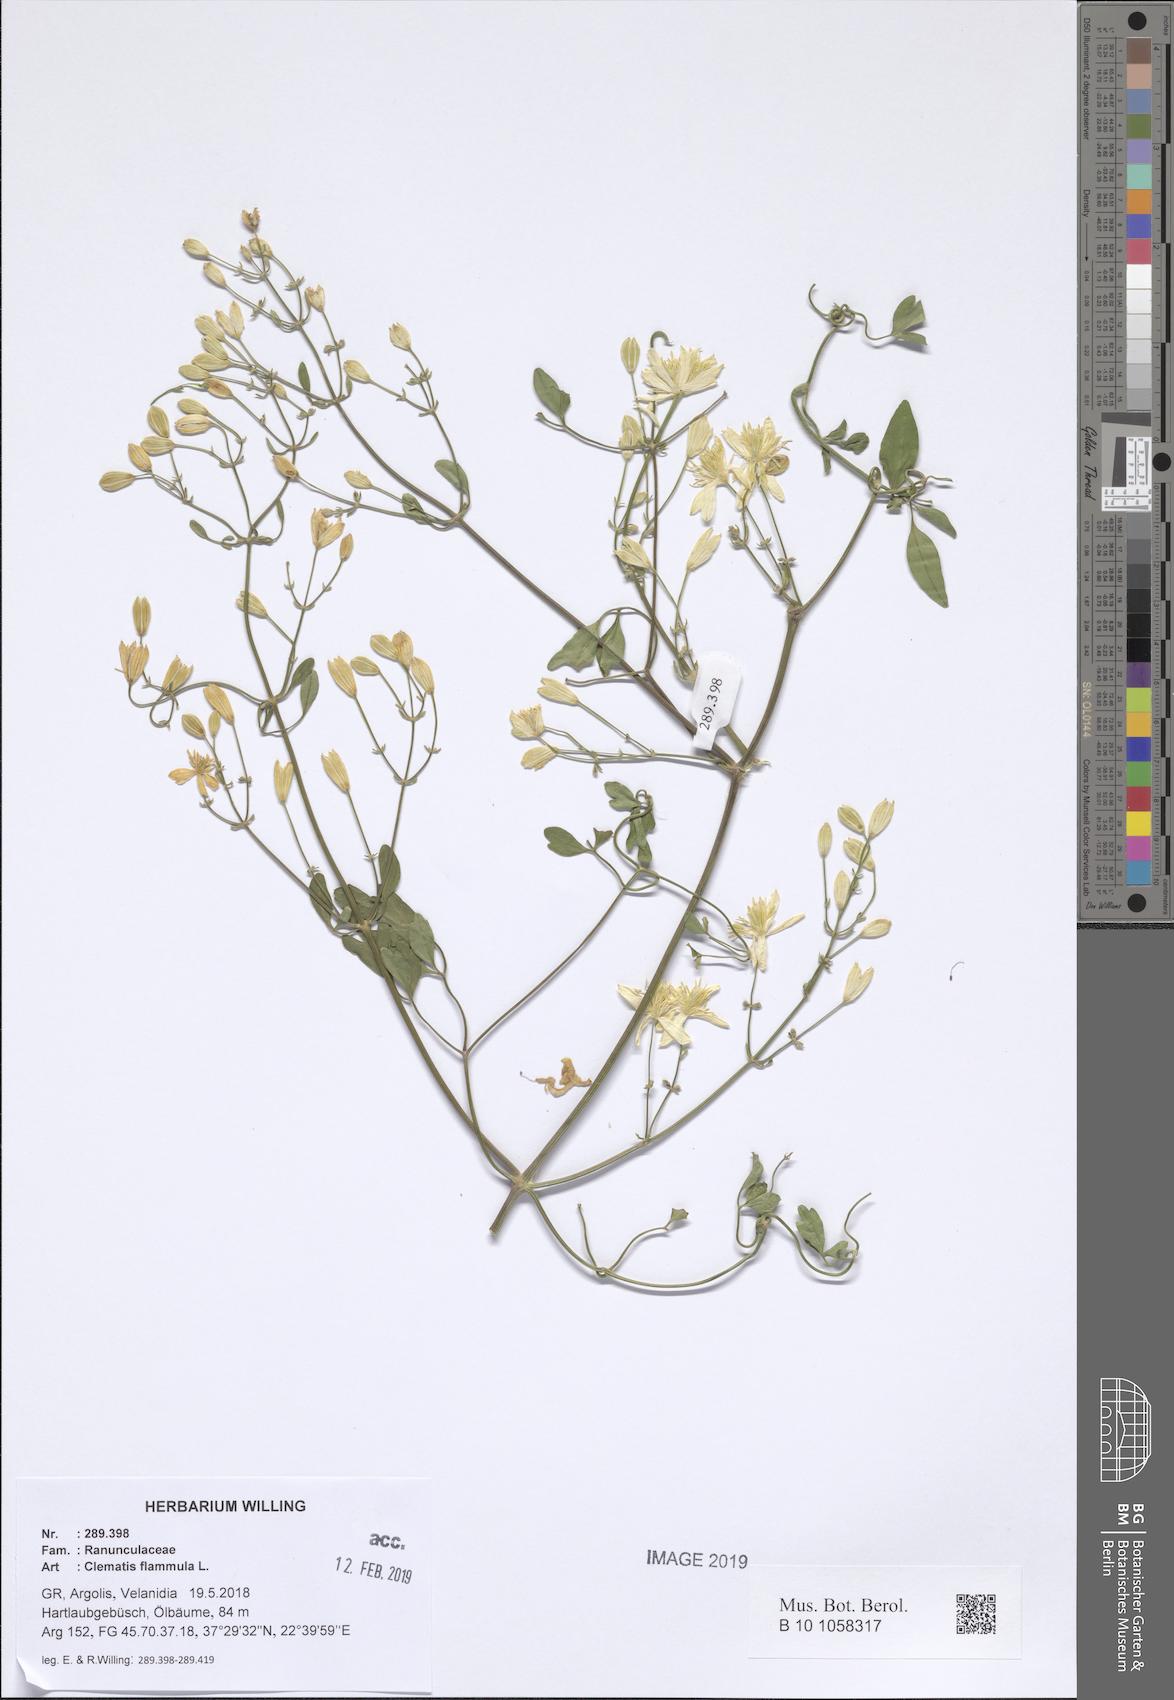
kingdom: Plantae
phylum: Tracheophyta
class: Magnoliopsida
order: Ranunculales
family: Ranunculaceae
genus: Clematis
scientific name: Clematis flammula
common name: Virgin's-bower
